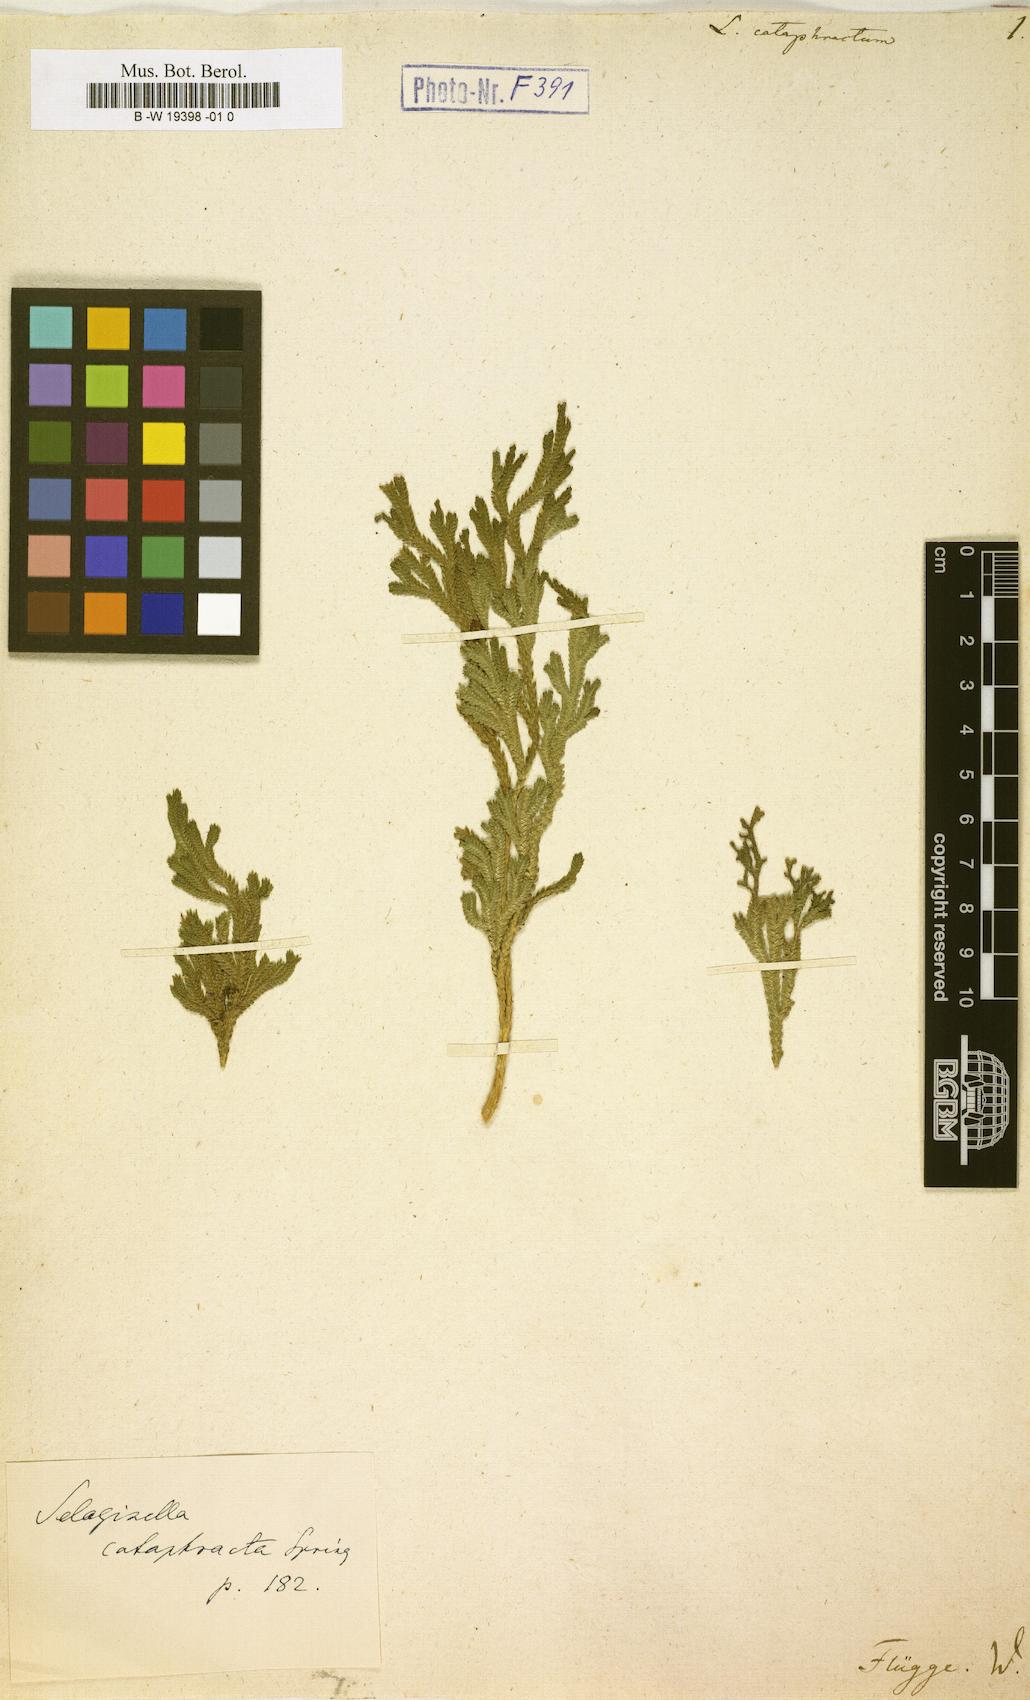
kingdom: Plantae
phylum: Tracheophyta
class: Lycopodiopsida
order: Selaginellales
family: Selaginellaceae
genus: Selaginella
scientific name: Selaginella cataphracta
